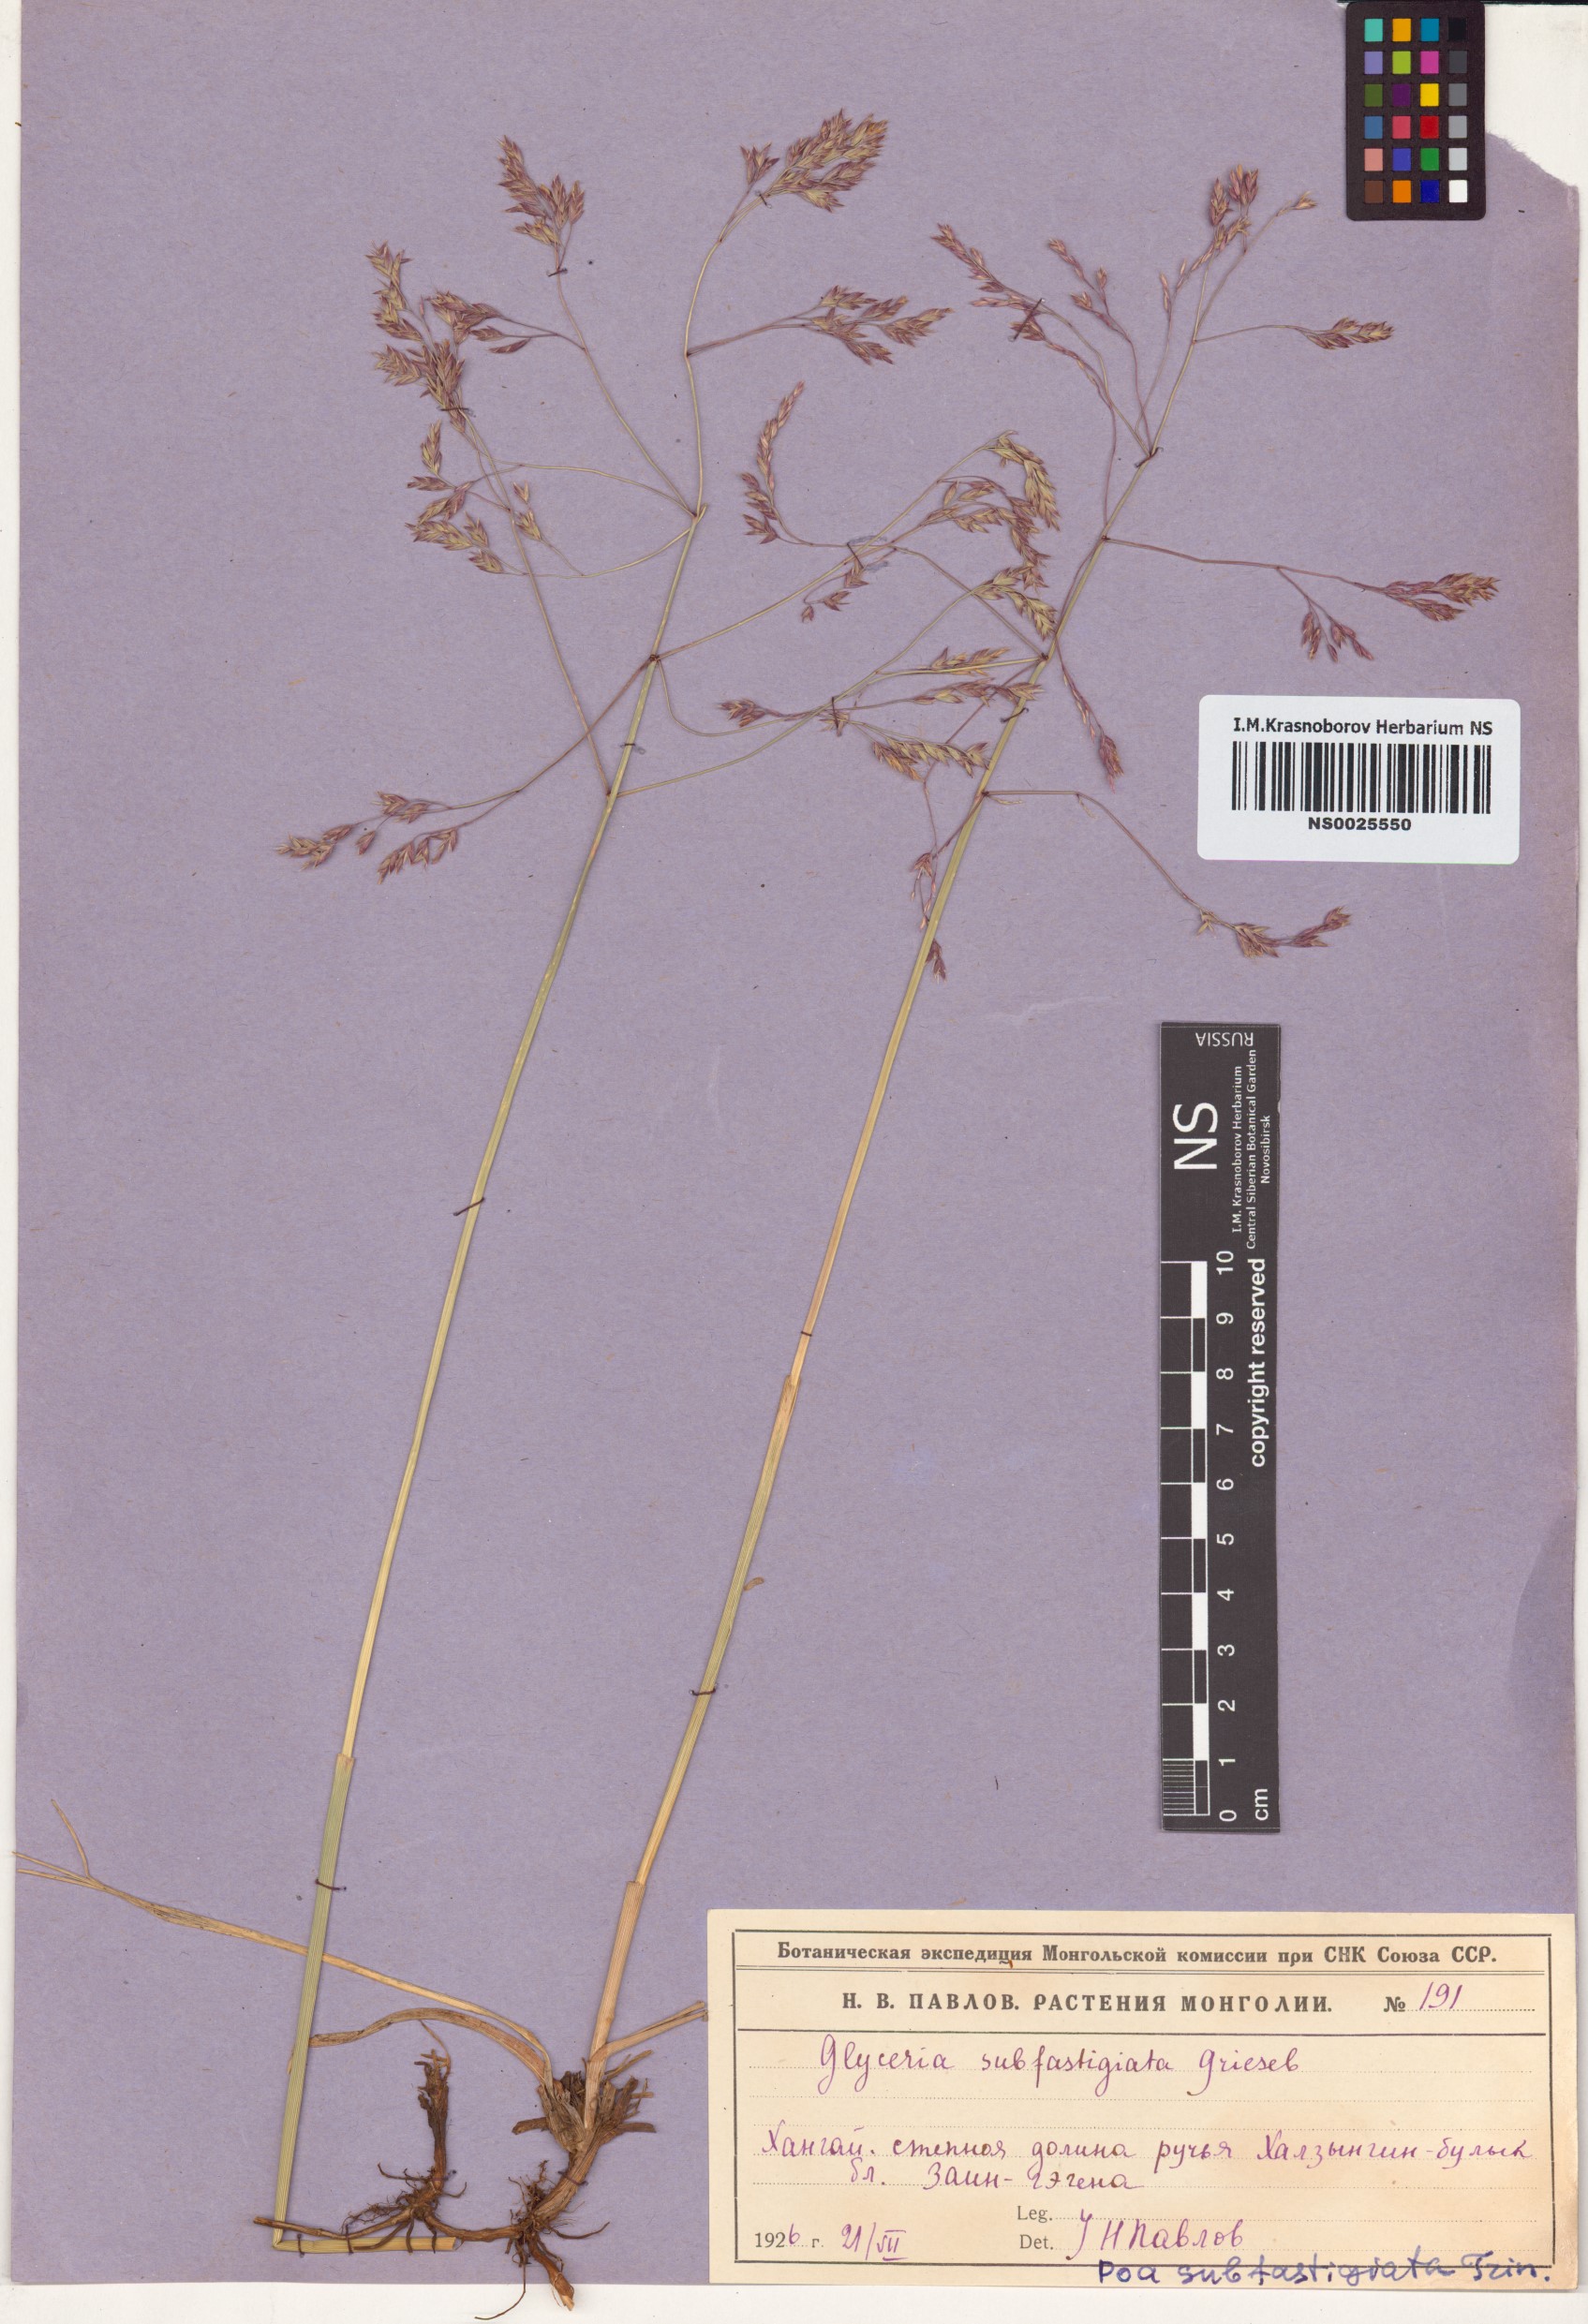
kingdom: Plantae
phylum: Tracheophyta
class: Liliopsida
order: Poales
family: Poaceae
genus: Arctopoa
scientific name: Arctopoa subfastigiata
